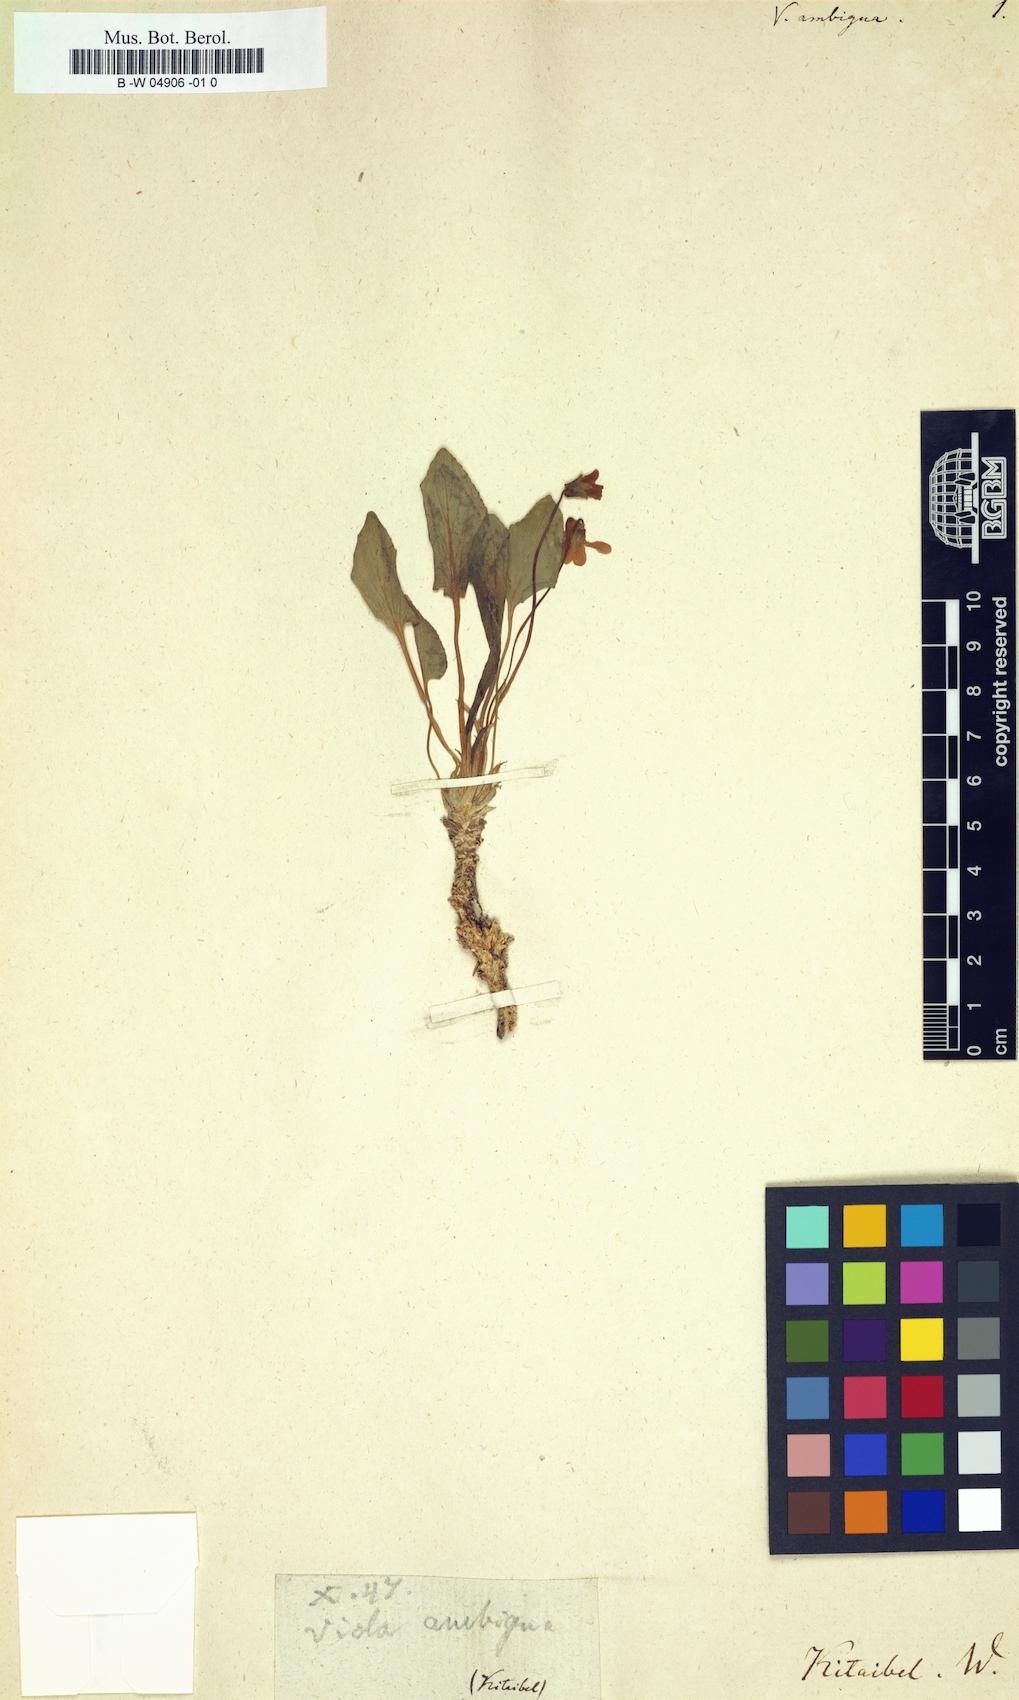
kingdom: Plantae
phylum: Tracheophyta
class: Magnoliopsida
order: Malpighiales
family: Violaceae
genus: Viola
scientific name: Viola ambigua
